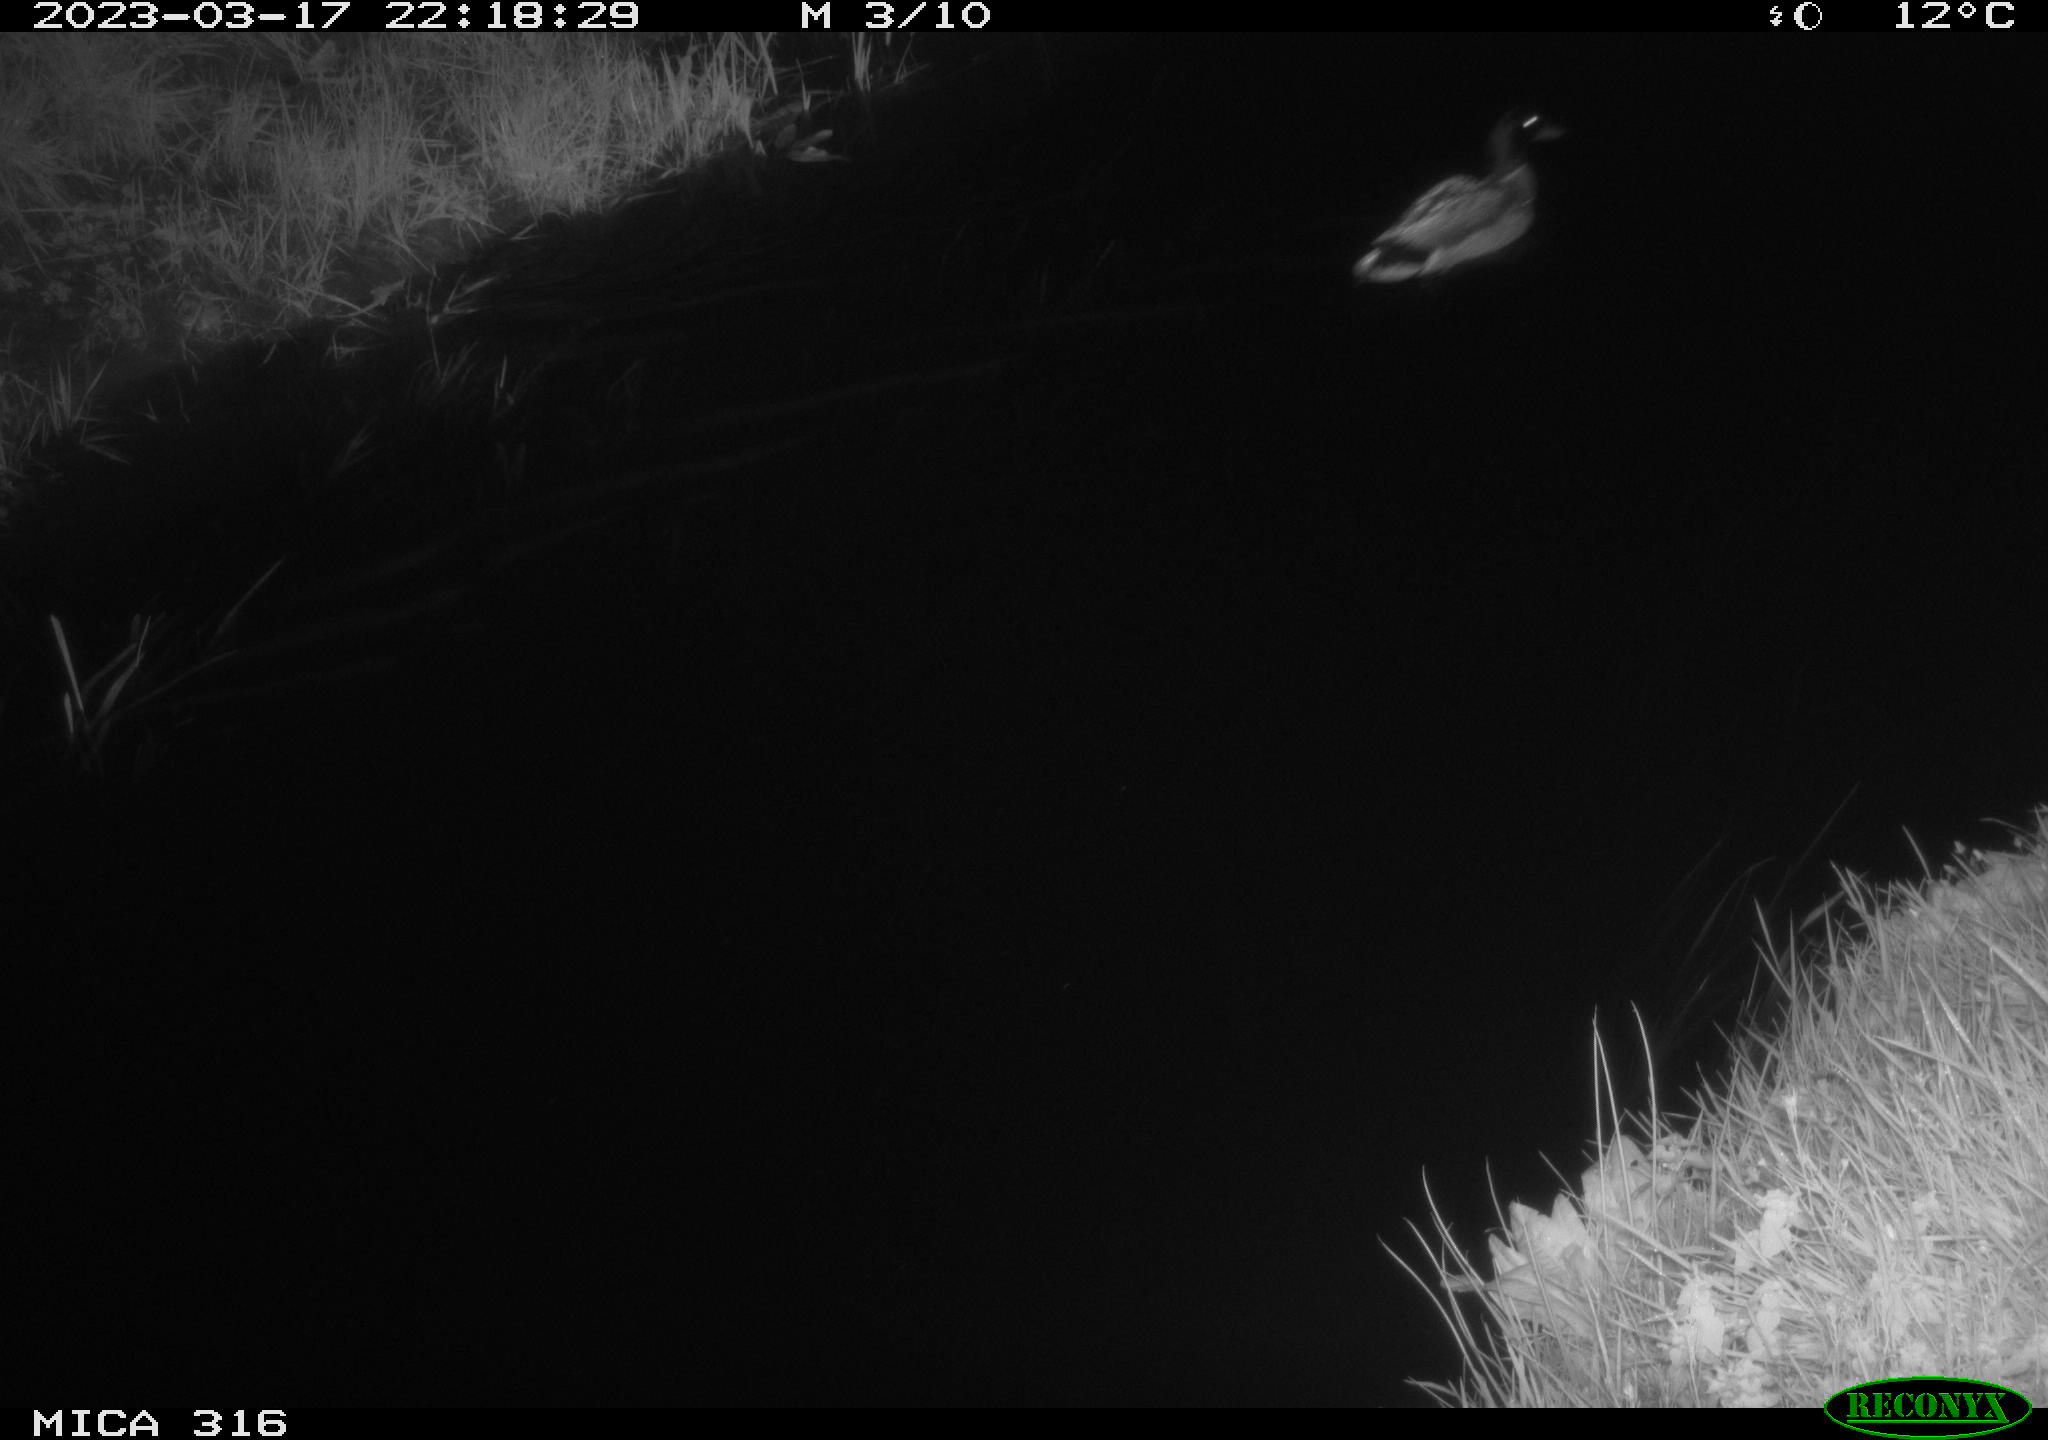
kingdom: Animalia
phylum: Chordata
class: Aves
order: Anseriformes
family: Anatidae
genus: Anas
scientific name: Anas
